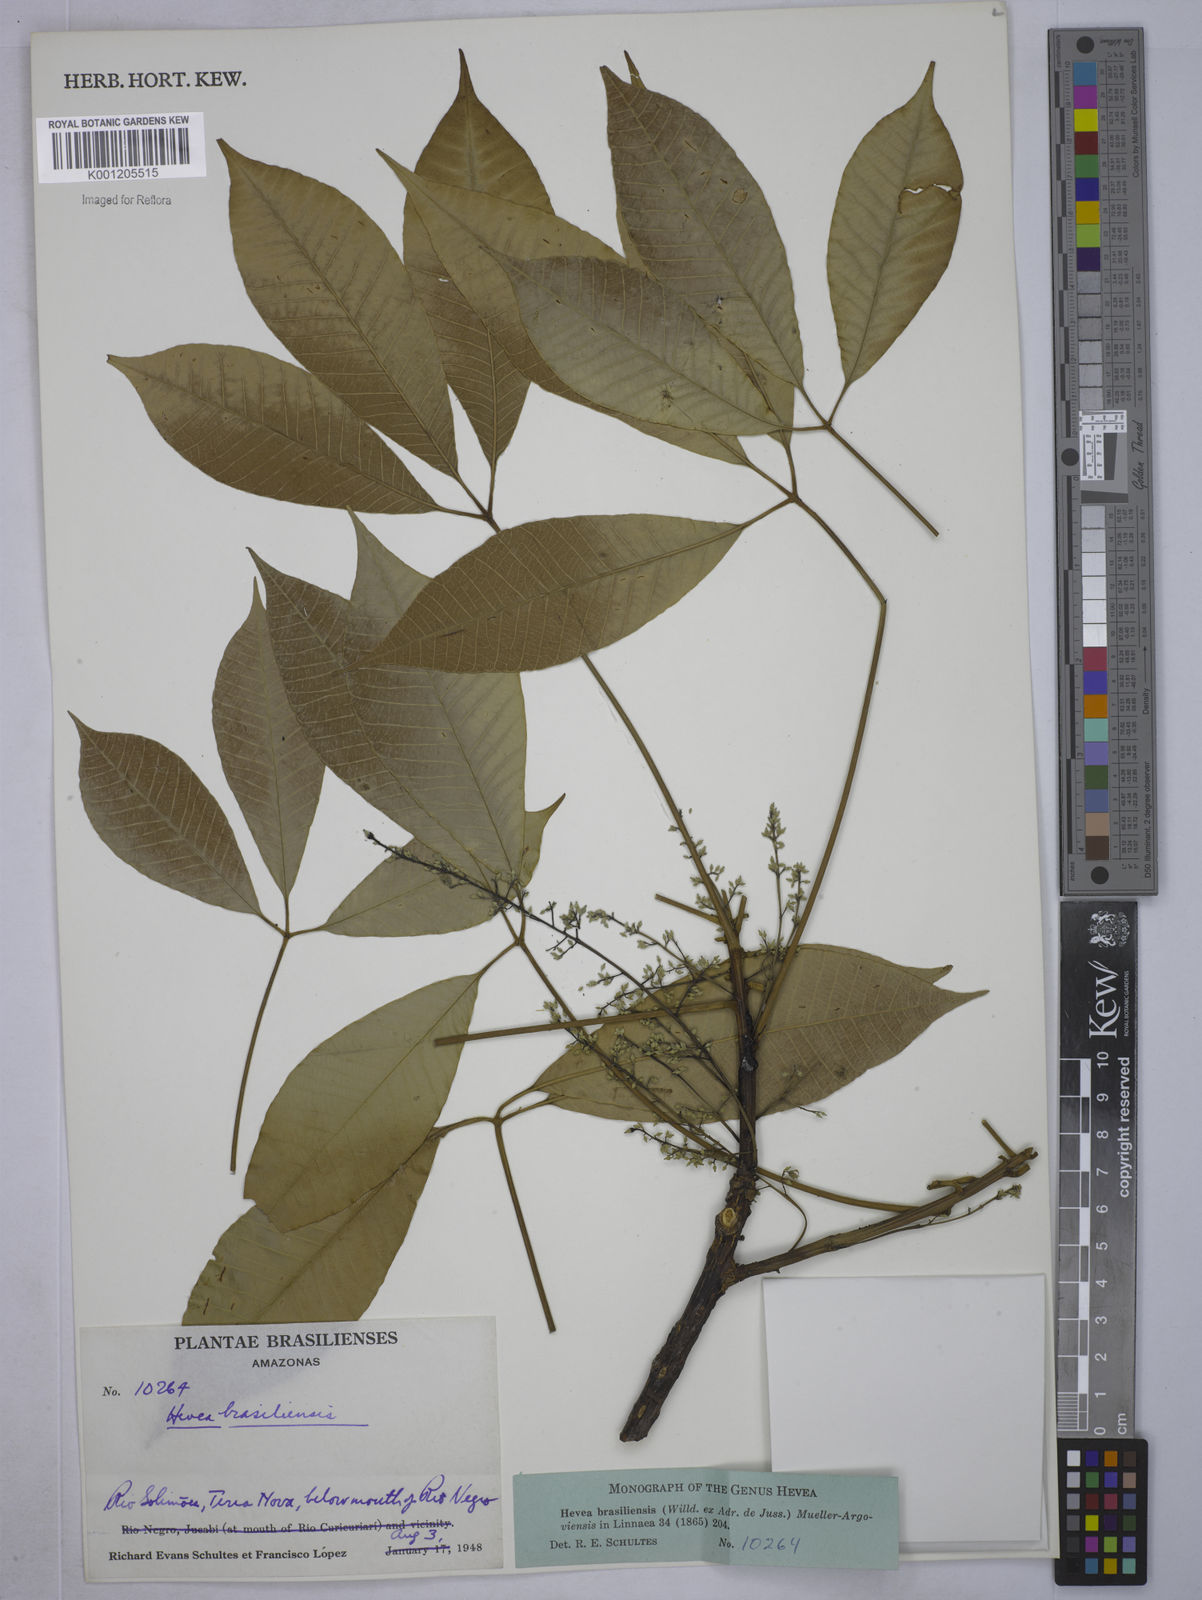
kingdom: Plantae
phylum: Tracheophyta
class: Magnoliopsida
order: Malpighiales
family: Euphorbiaceae
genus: Hevea
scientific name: Hevea
